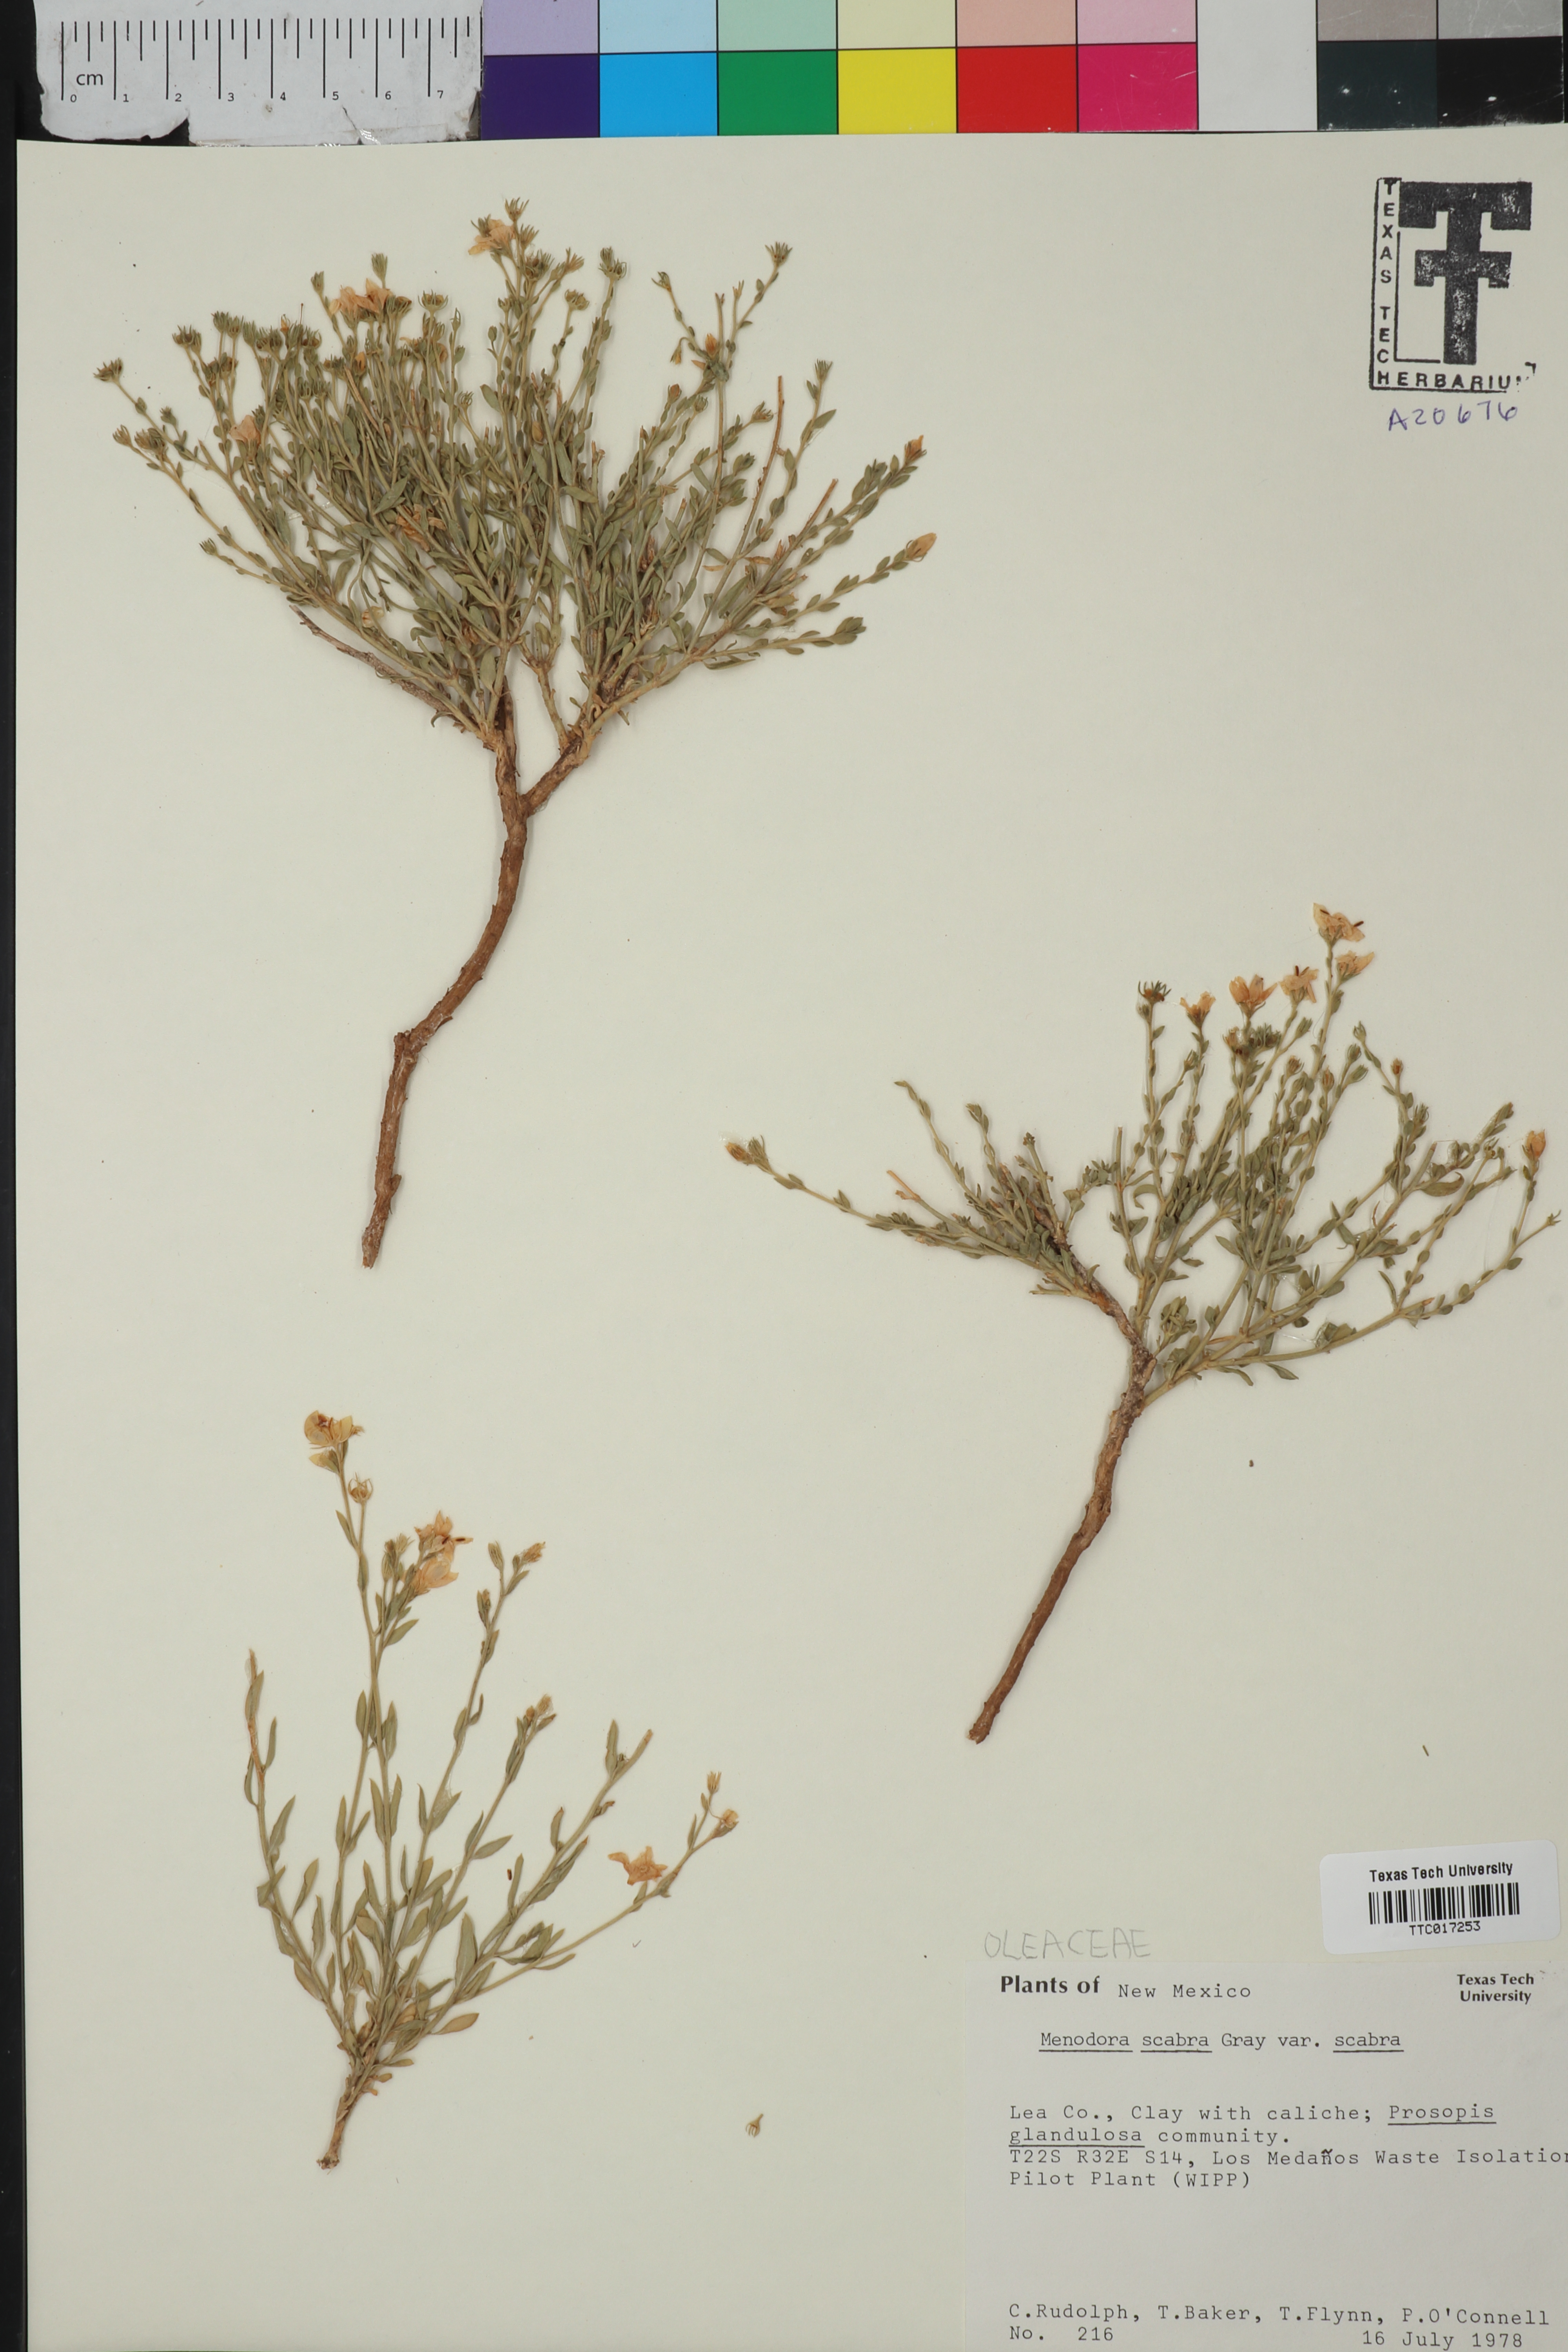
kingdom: Plantae
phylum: Tracheophyta
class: Magnoliopsida
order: Lamiales
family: Oleaceae
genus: Menodora
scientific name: Menodora scabra
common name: Rough menodora
